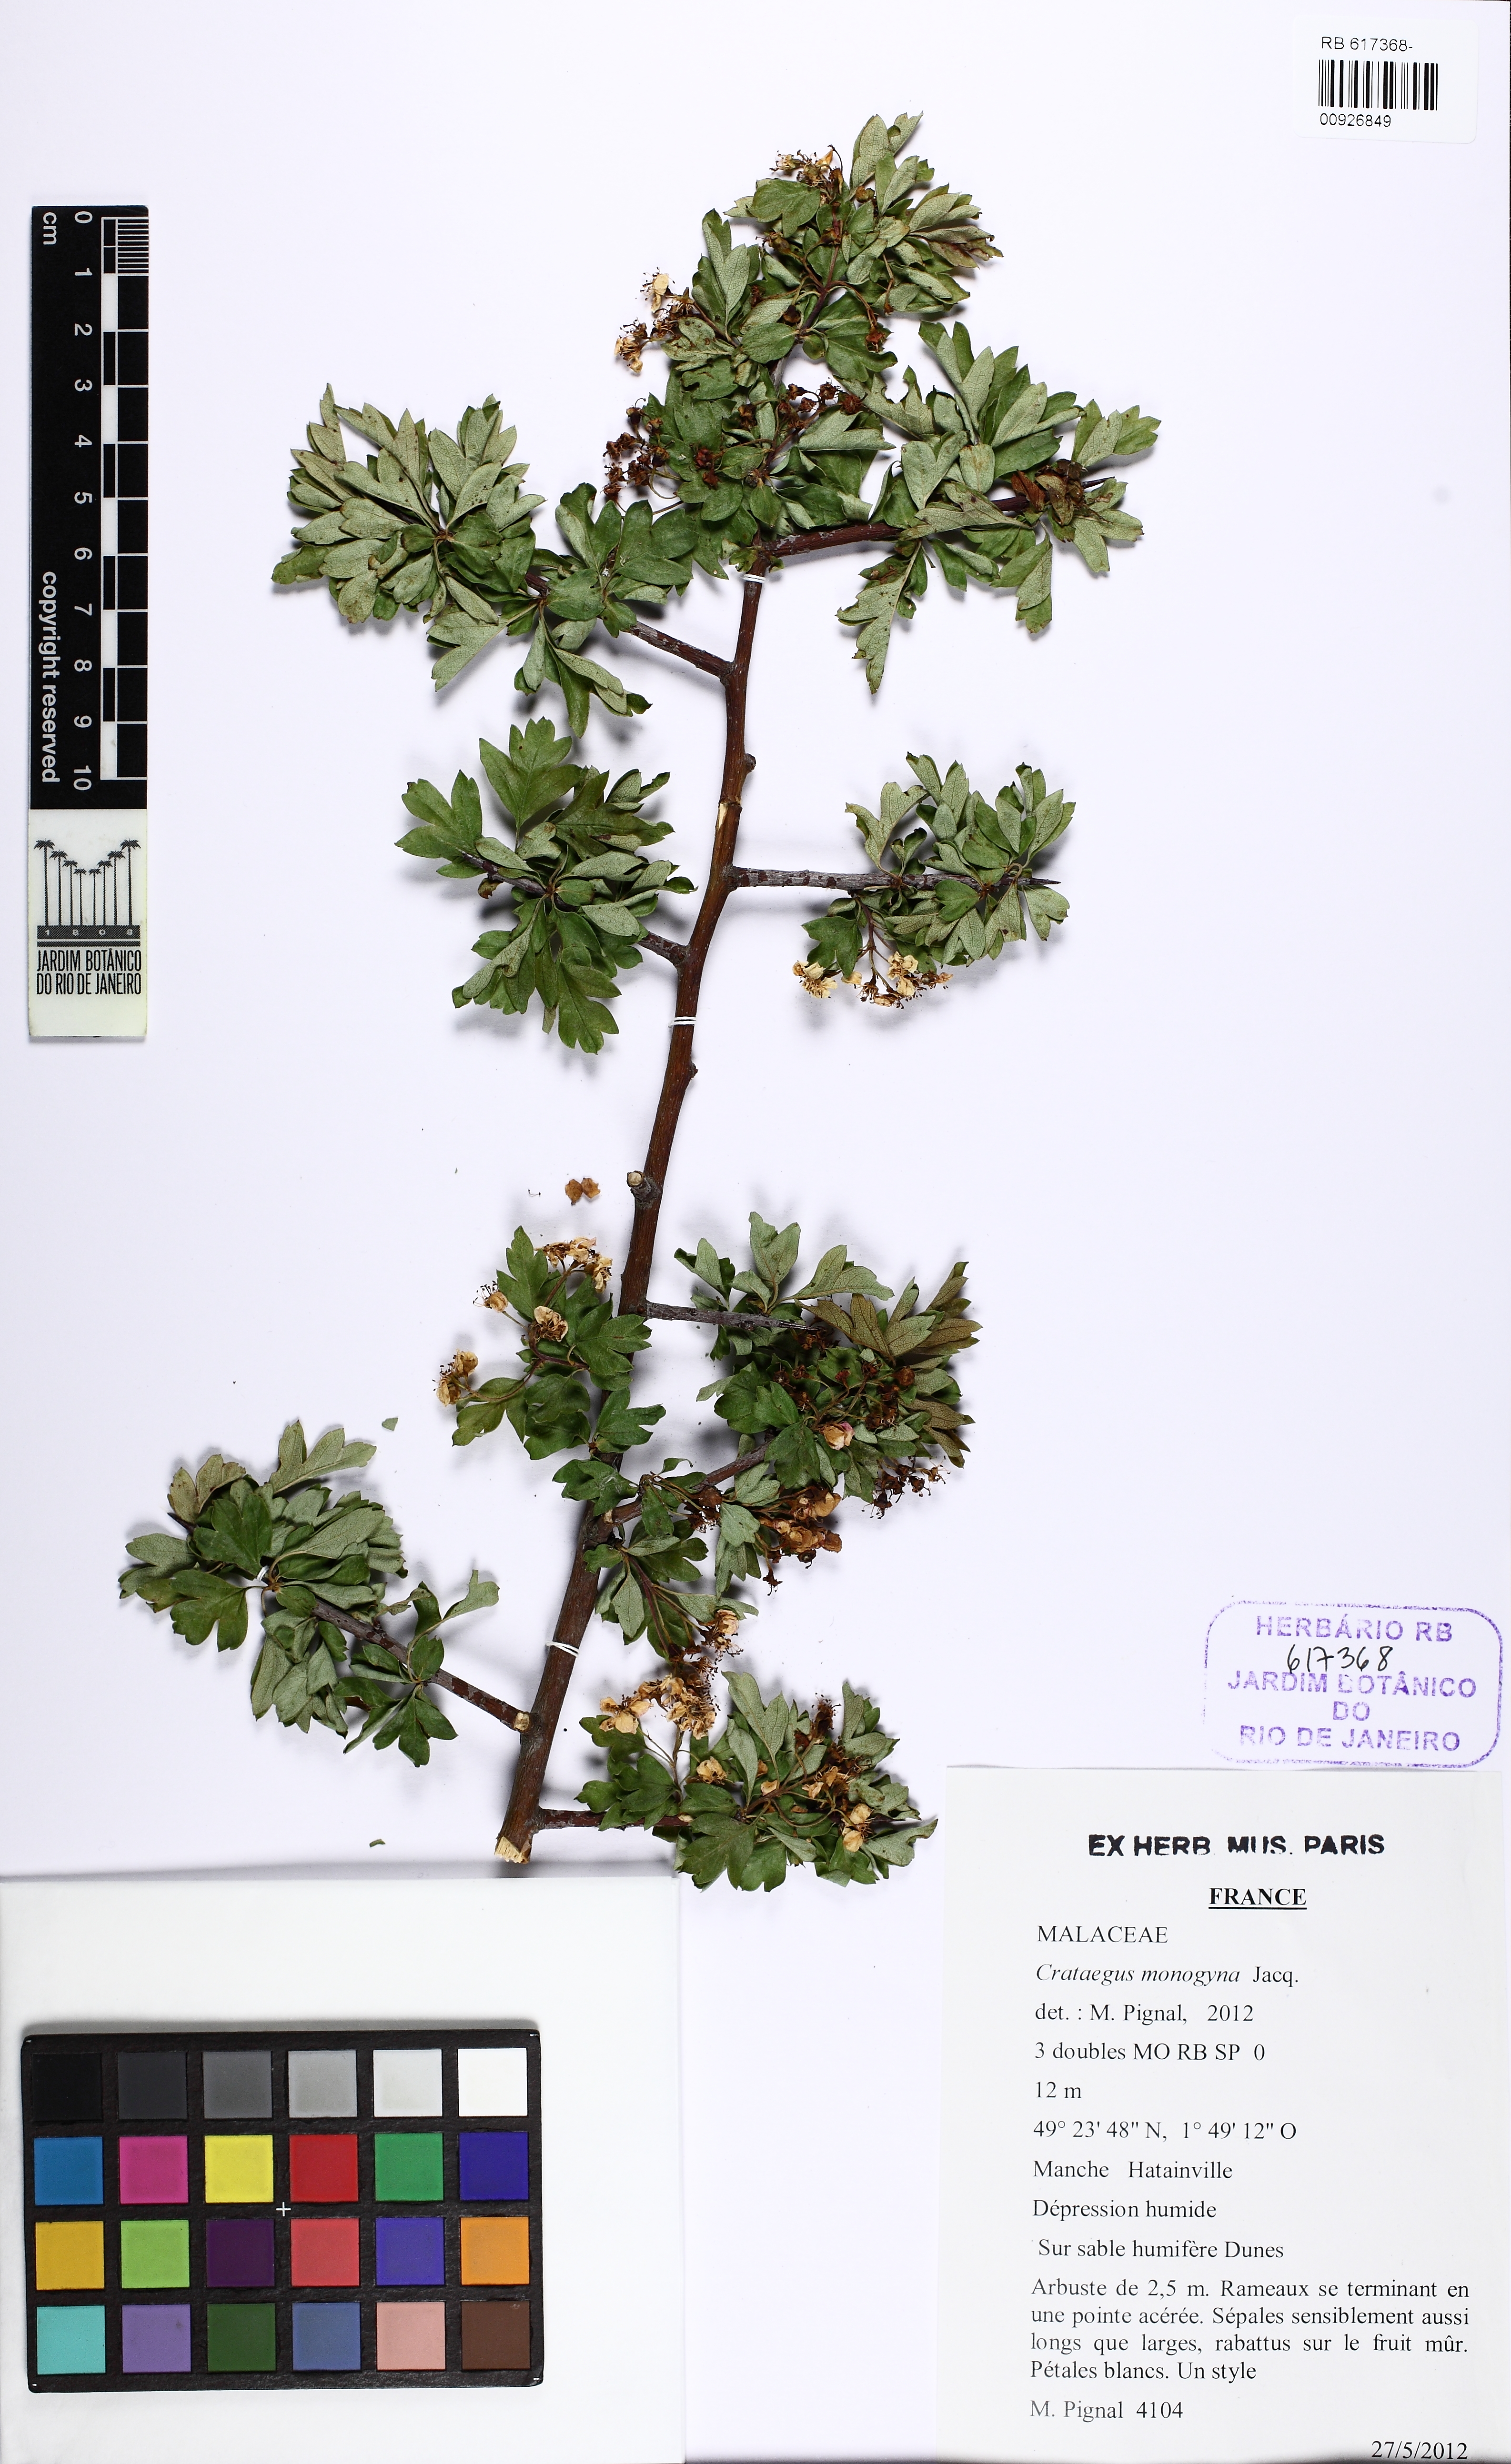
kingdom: Plantae
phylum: Tracheophyta
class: Magnoliopsida
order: Rosales
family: Rosaceae
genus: Crataegus
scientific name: Crataegus monogyna
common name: Hawthorn
